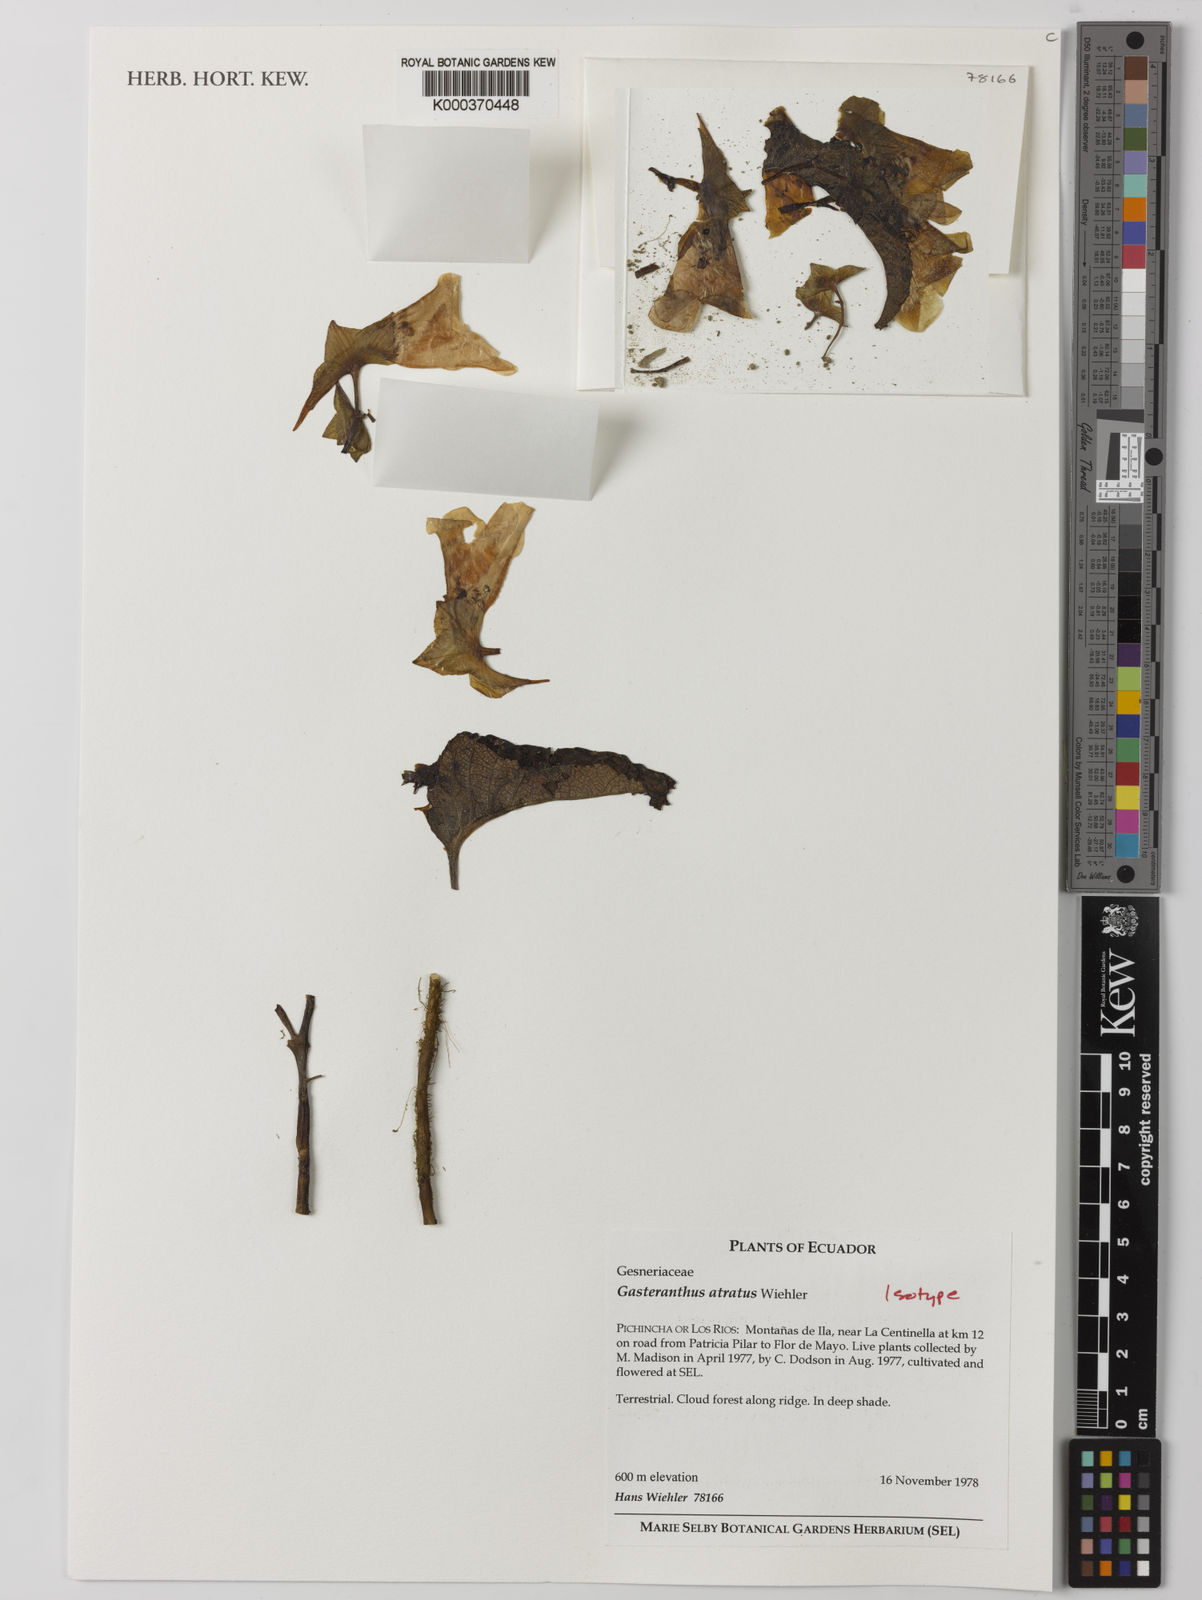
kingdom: Plantae
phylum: Tracheophyta
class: Magnoliopsida
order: Lamiales
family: Gesneriaceae
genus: Gasteranthus
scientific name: Gasteranthus atratus
